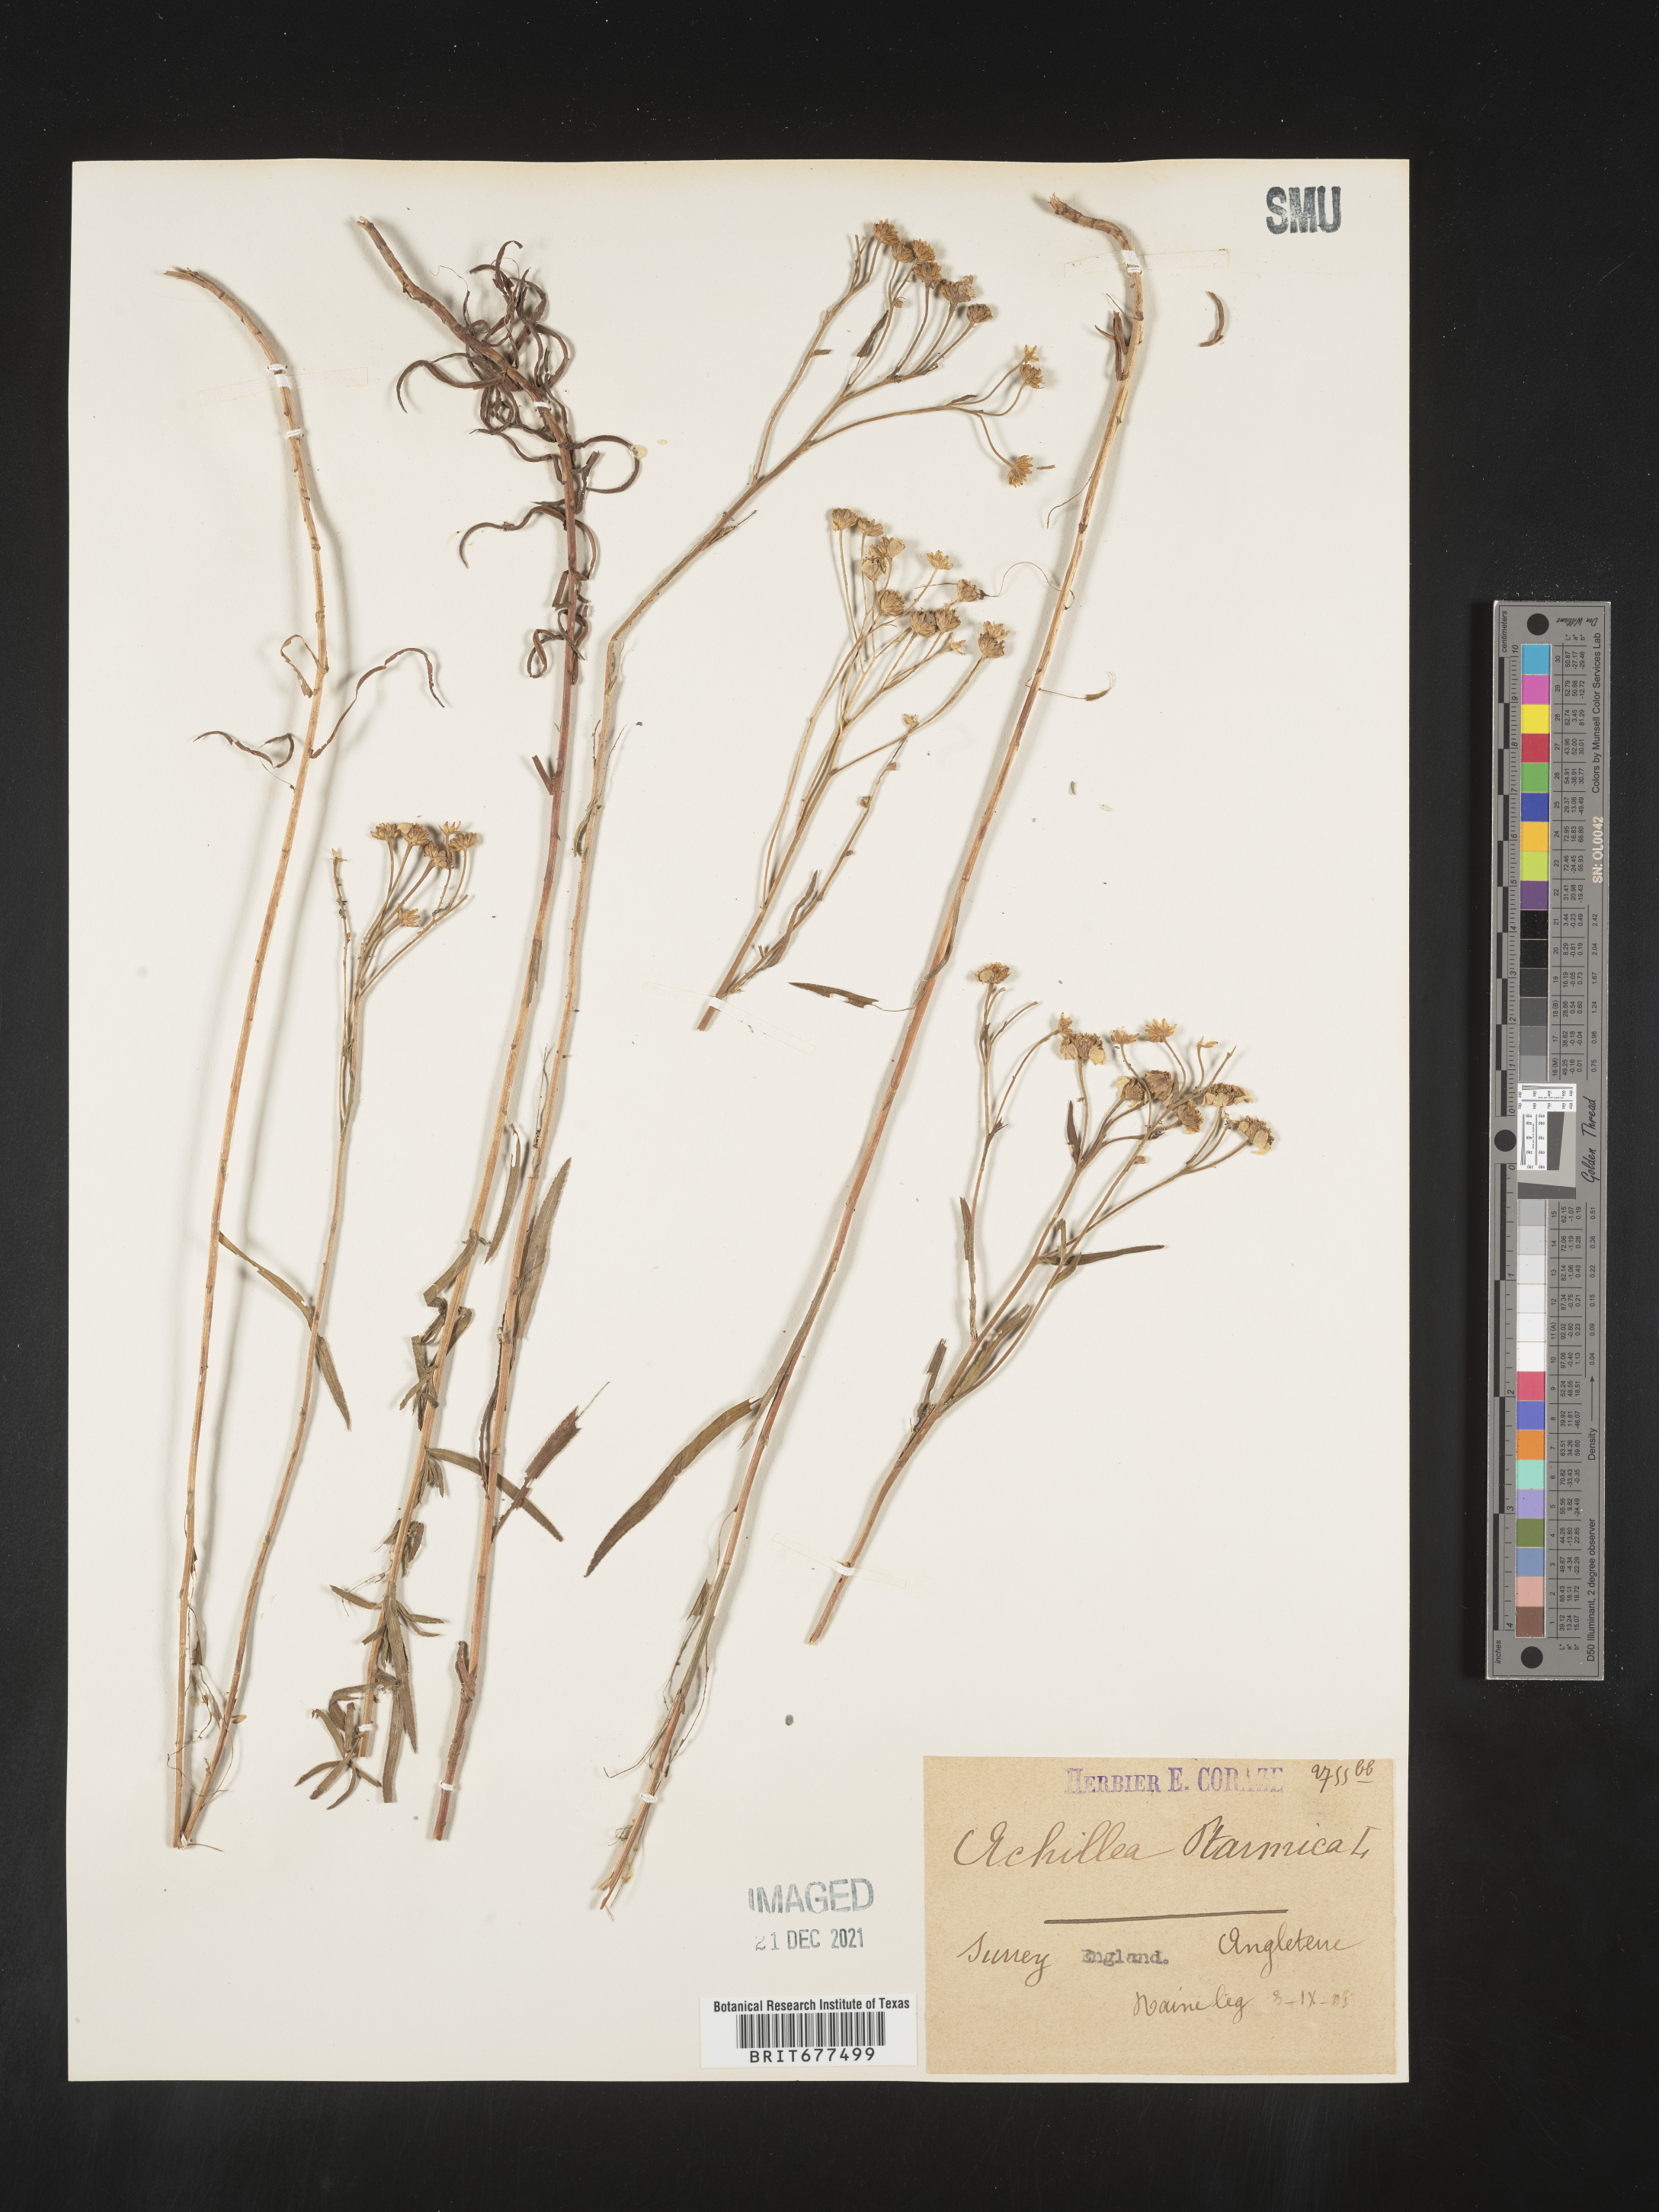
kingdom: Plantae
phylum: Tracheophyta
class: Magnoliopsida
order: Asterales
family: Asteraceae
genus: Achillea
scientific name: Achillea ptarmica
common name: Sneezeweed
